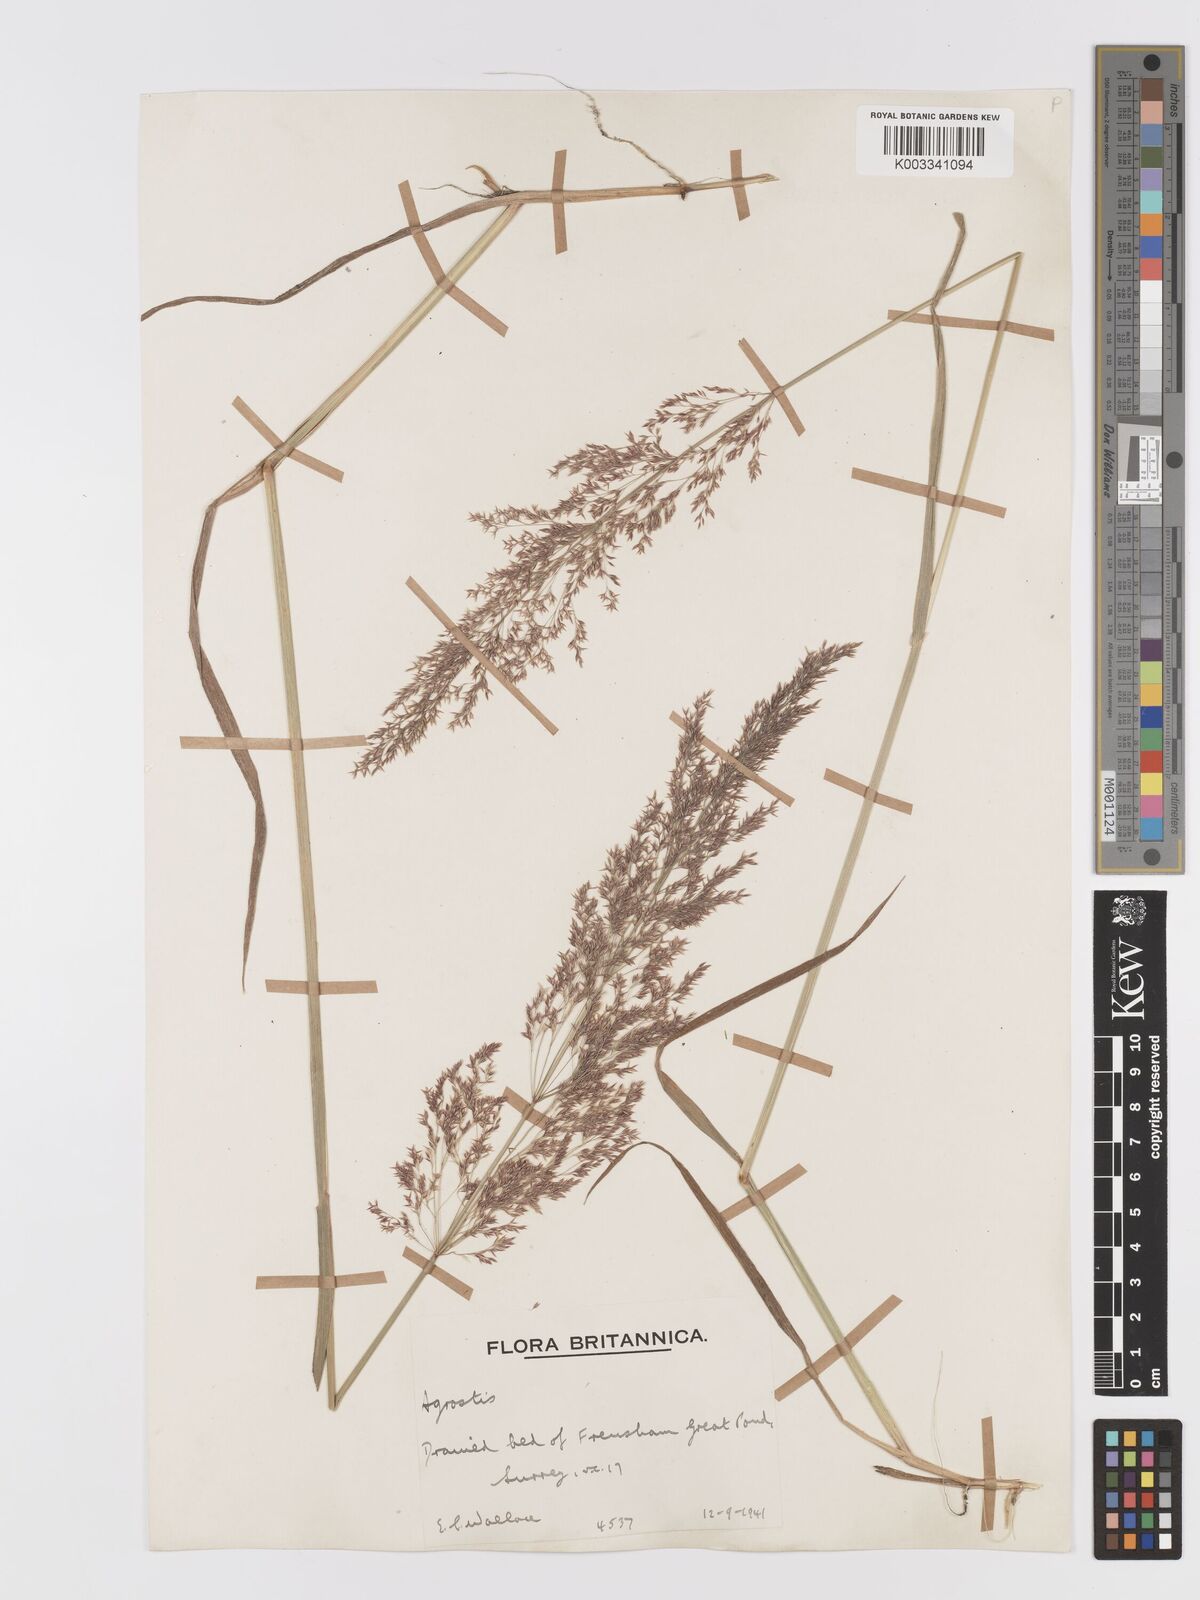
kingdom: Plantae
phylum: Tracheophyta
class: Liliopsida
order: Poales
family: Poaceae
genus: Agrostis
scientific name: Agrostis gigantea
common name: Black bent
